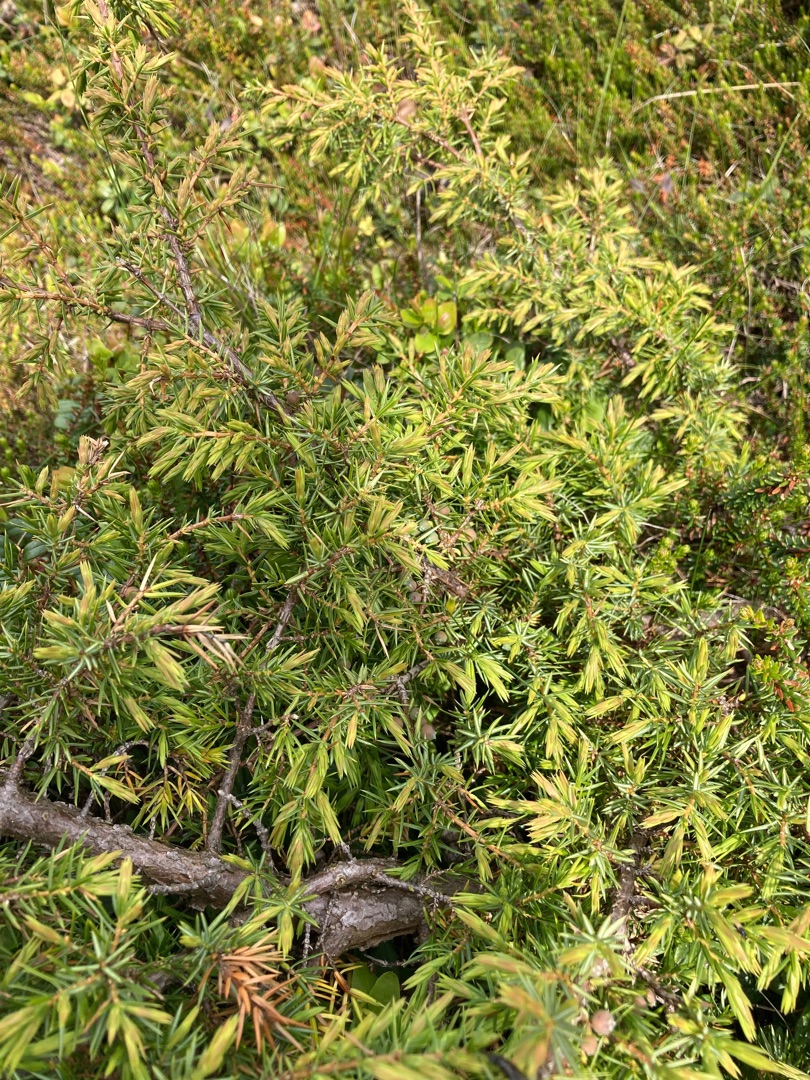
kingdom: Plantae
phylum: Tracheophyta
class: Pinopsida
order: Pinales
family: Cupressaceae
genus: Juniperus
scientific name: Juniperus communis
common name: Almindelig ene
